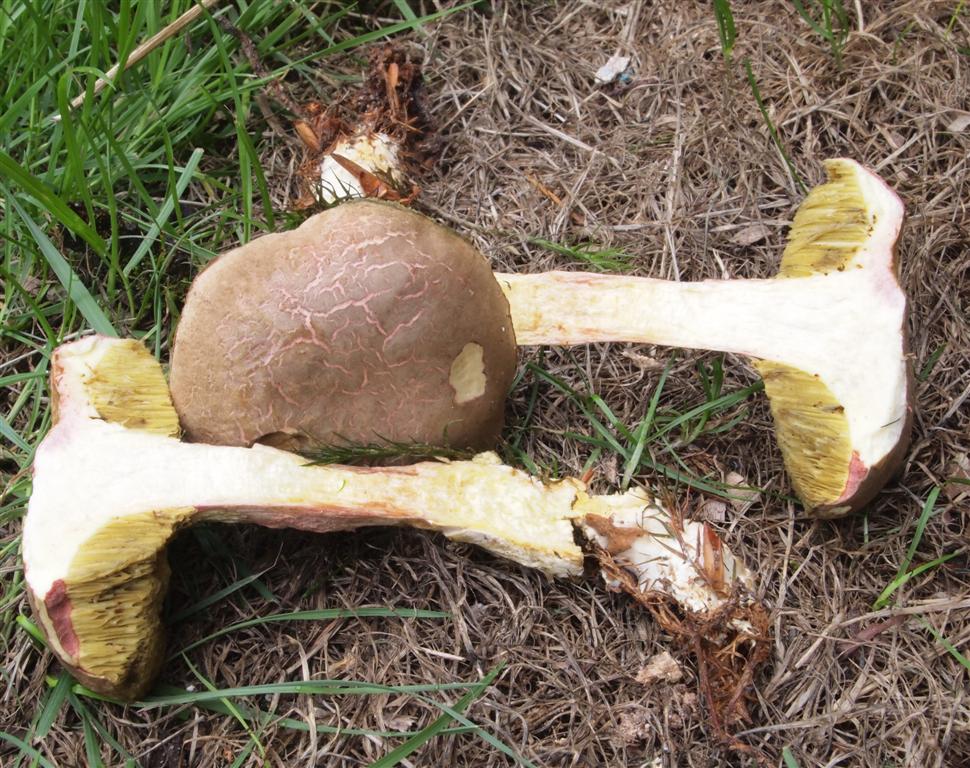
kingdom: Fungi
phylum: Basidiomycota
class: Agaricomycetes
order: Boletales
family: Boletaceae
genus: Xerocomellus
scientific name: Xerocomellus chrysenteron
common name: rødsprukken rørhat
